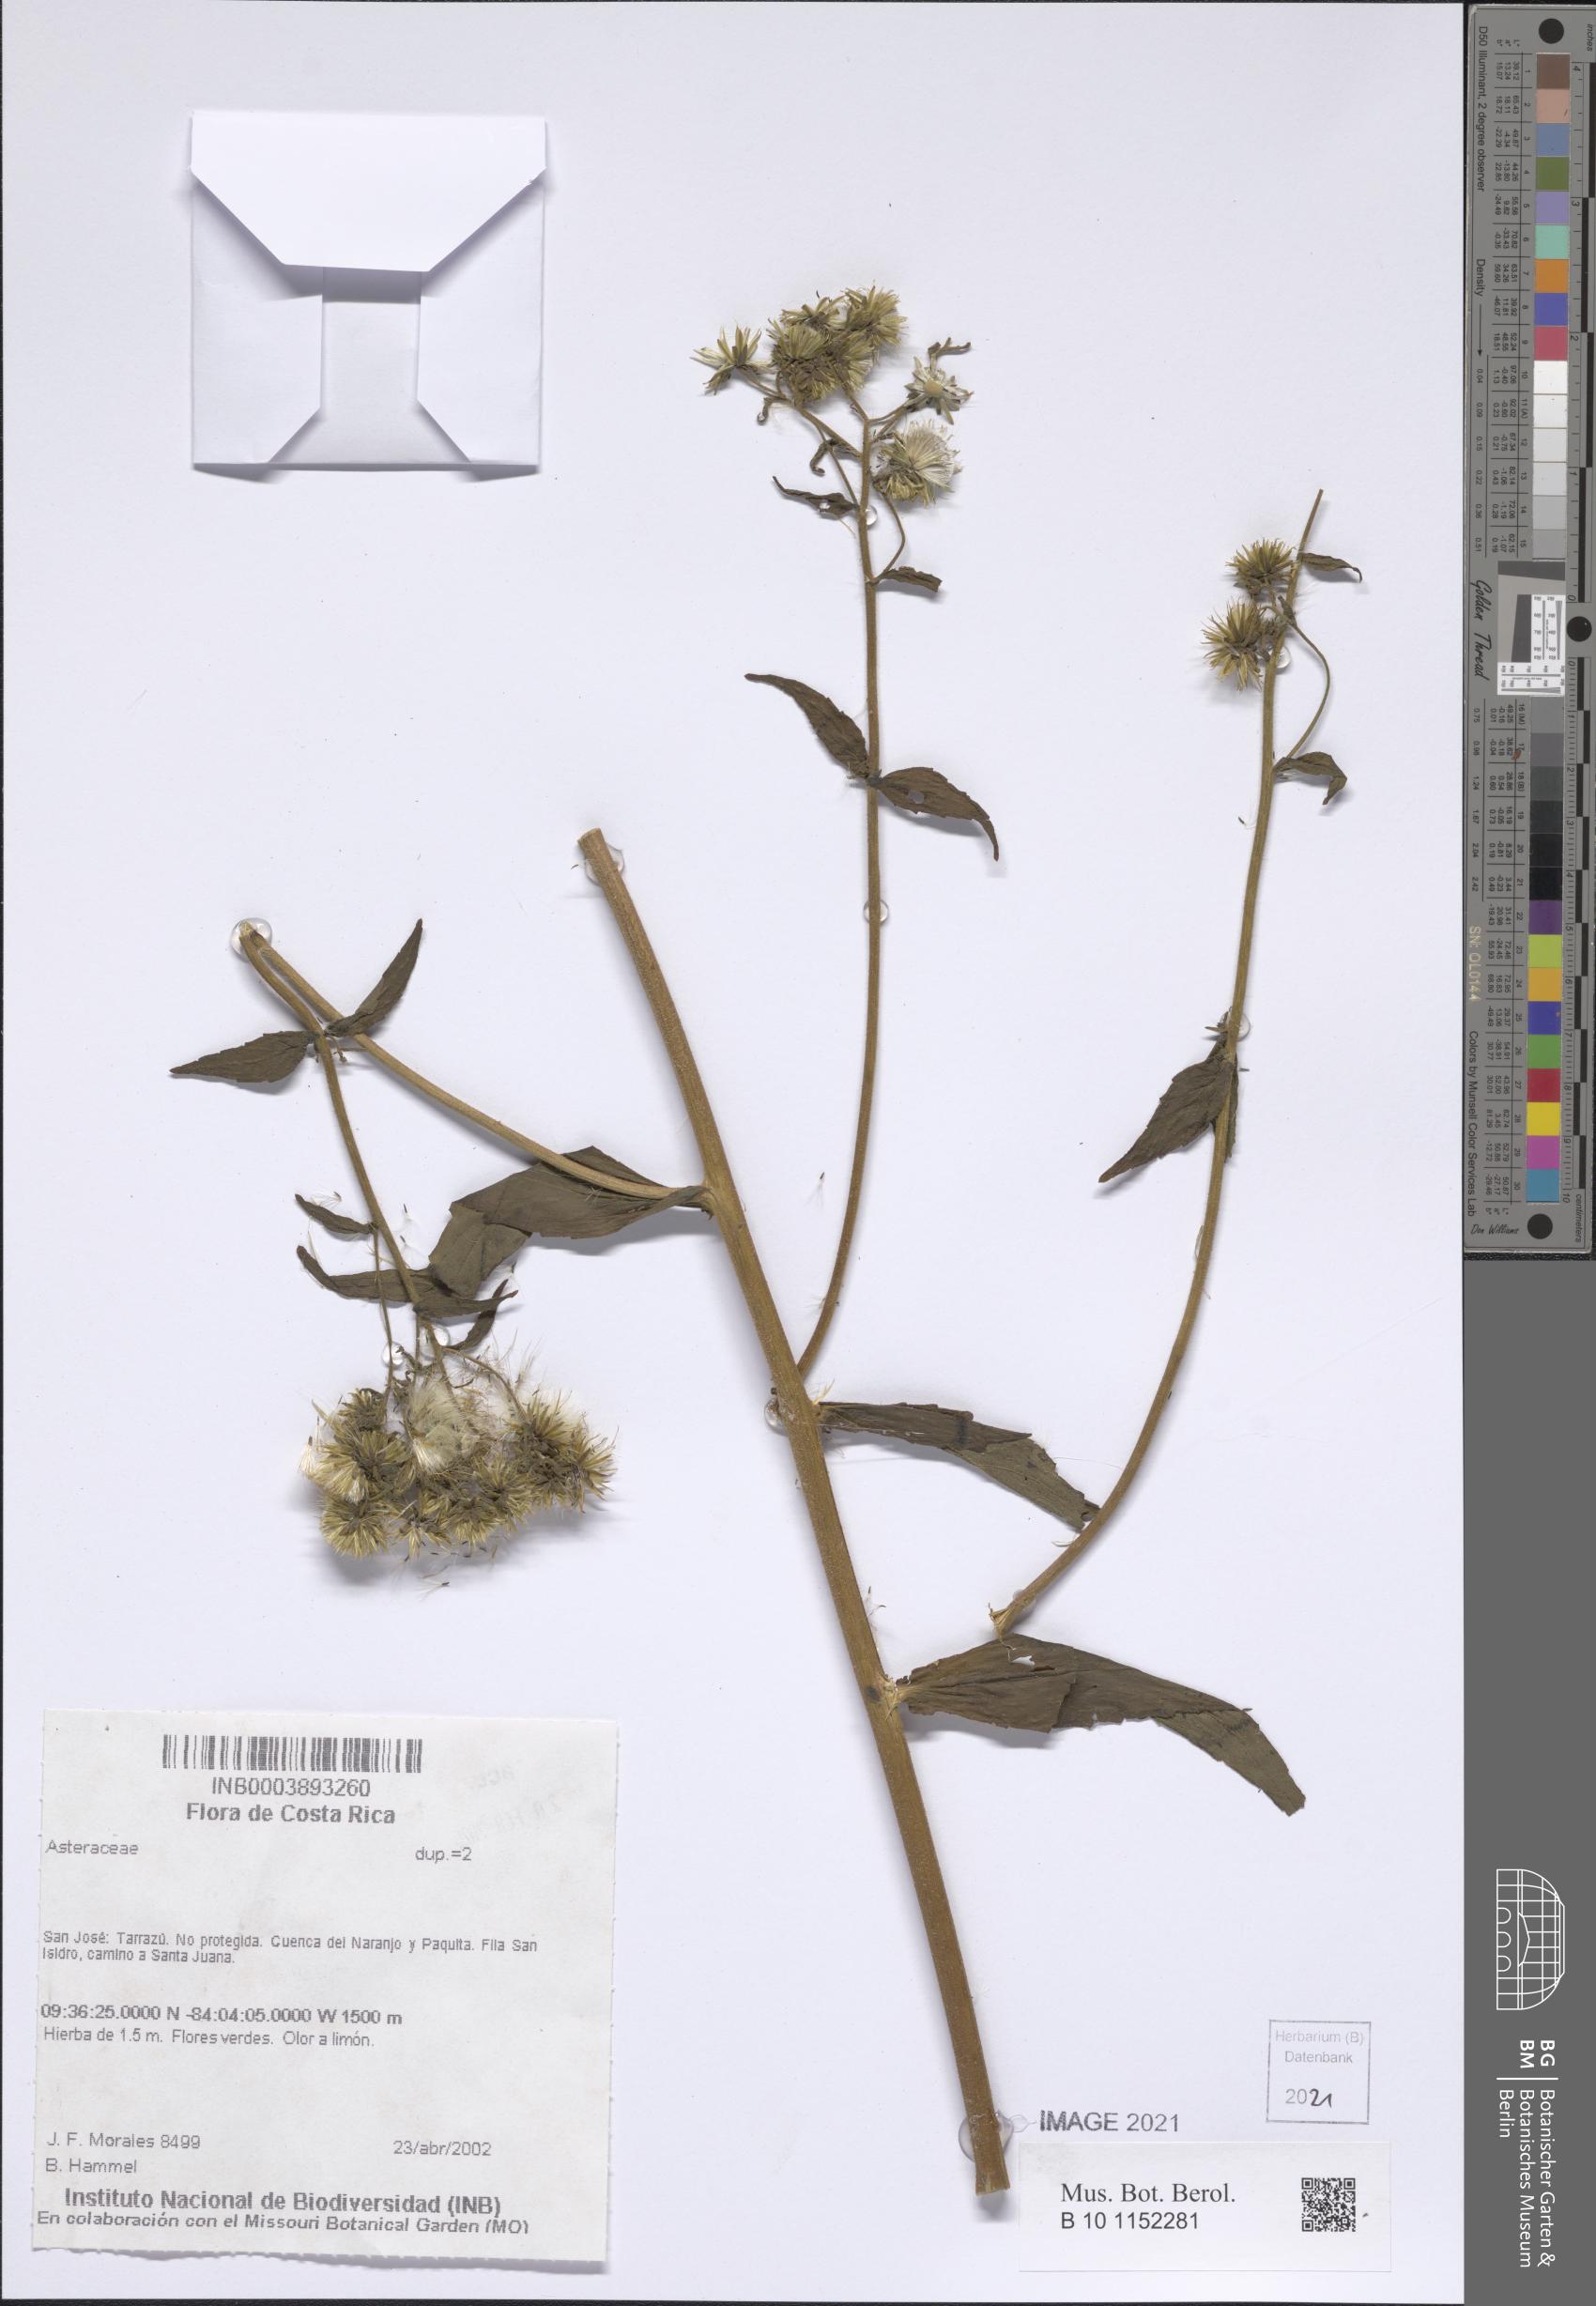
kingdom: Plantae
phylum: Tracheophyta
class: Magnoliopsida
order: Asterales
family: Asteraceae
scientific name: Asteraceae
